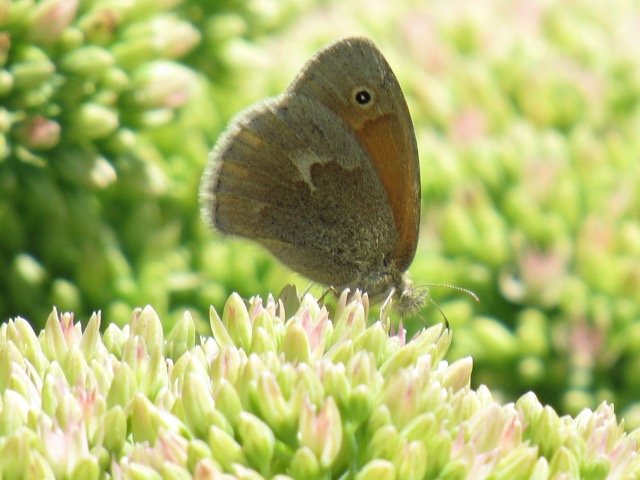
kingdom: Animalia
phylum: Arthropoda
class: Insecta
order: Lepidoptera
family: Nymphalidae
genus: Coenonympha
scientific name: Coenonympha tullia
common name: Large Heath
